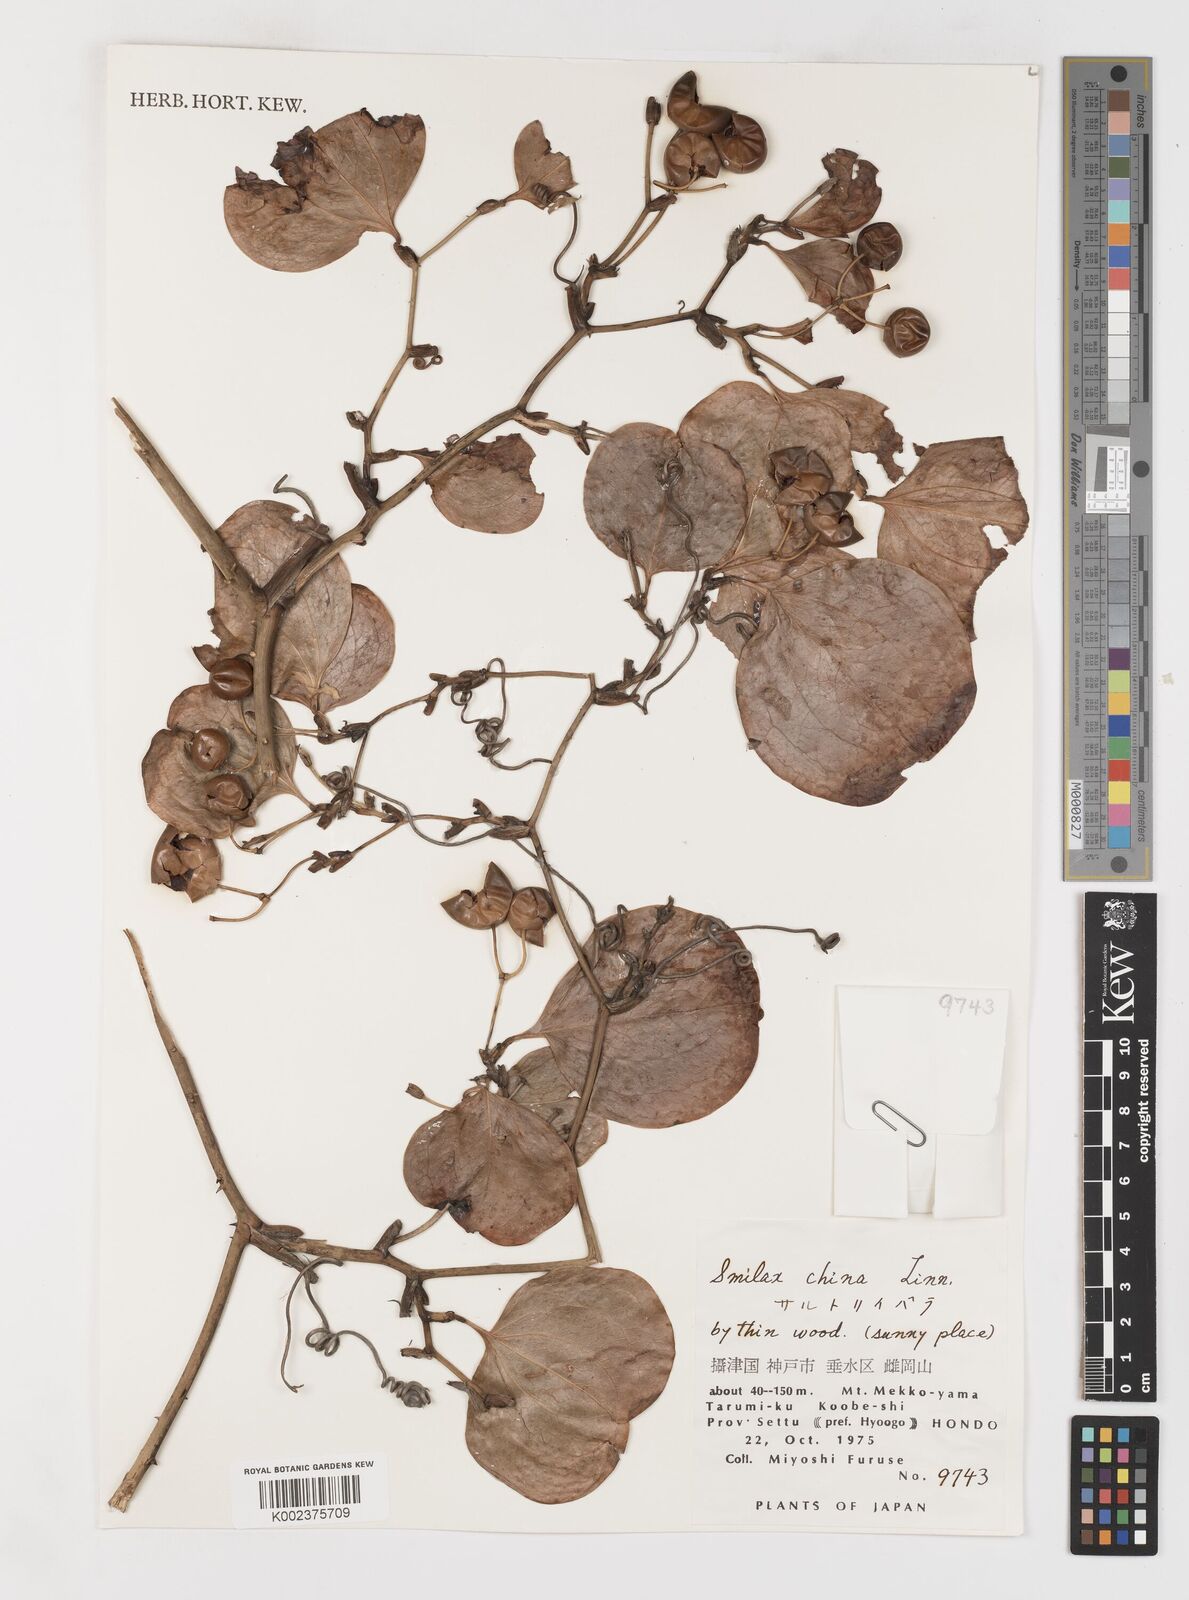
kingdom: Plantae
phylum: Tracheophyta
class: Liliopsida
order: Liliales
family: Smilacaceae
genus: Smilax
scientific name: Smilax china
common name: Chinaroot
